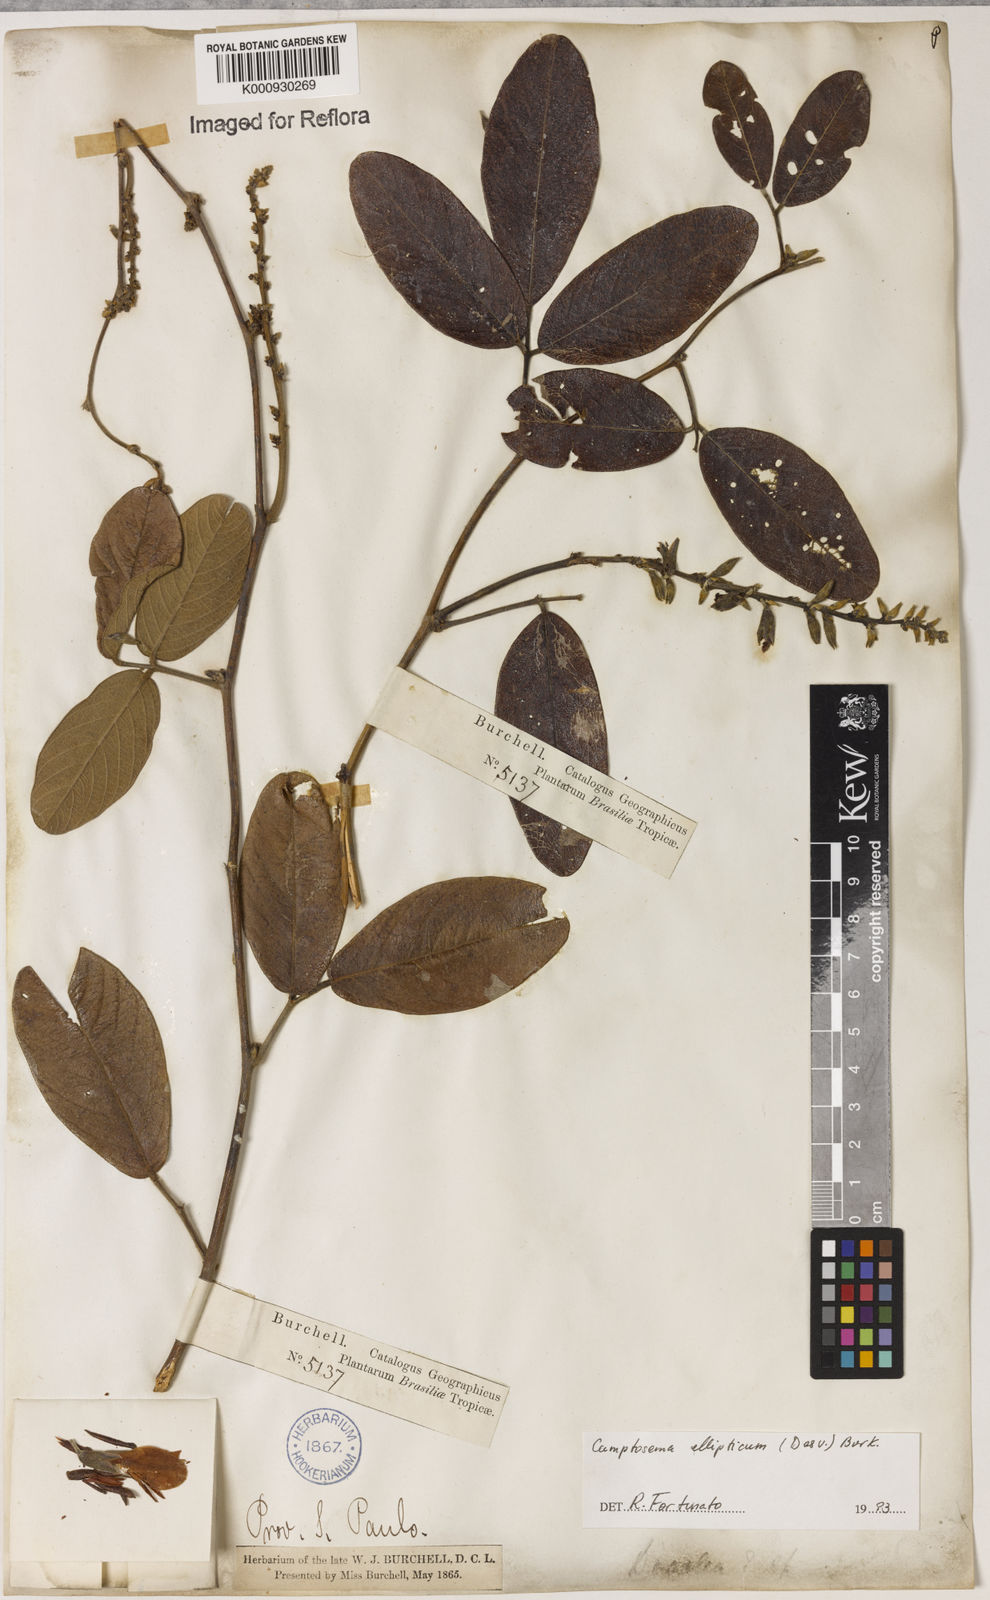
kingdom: Plantae
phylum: Tracheophyta
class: Magnoliopsida
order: Fabales
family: Fabaceae
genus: Camptosema
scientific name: Camptosema
